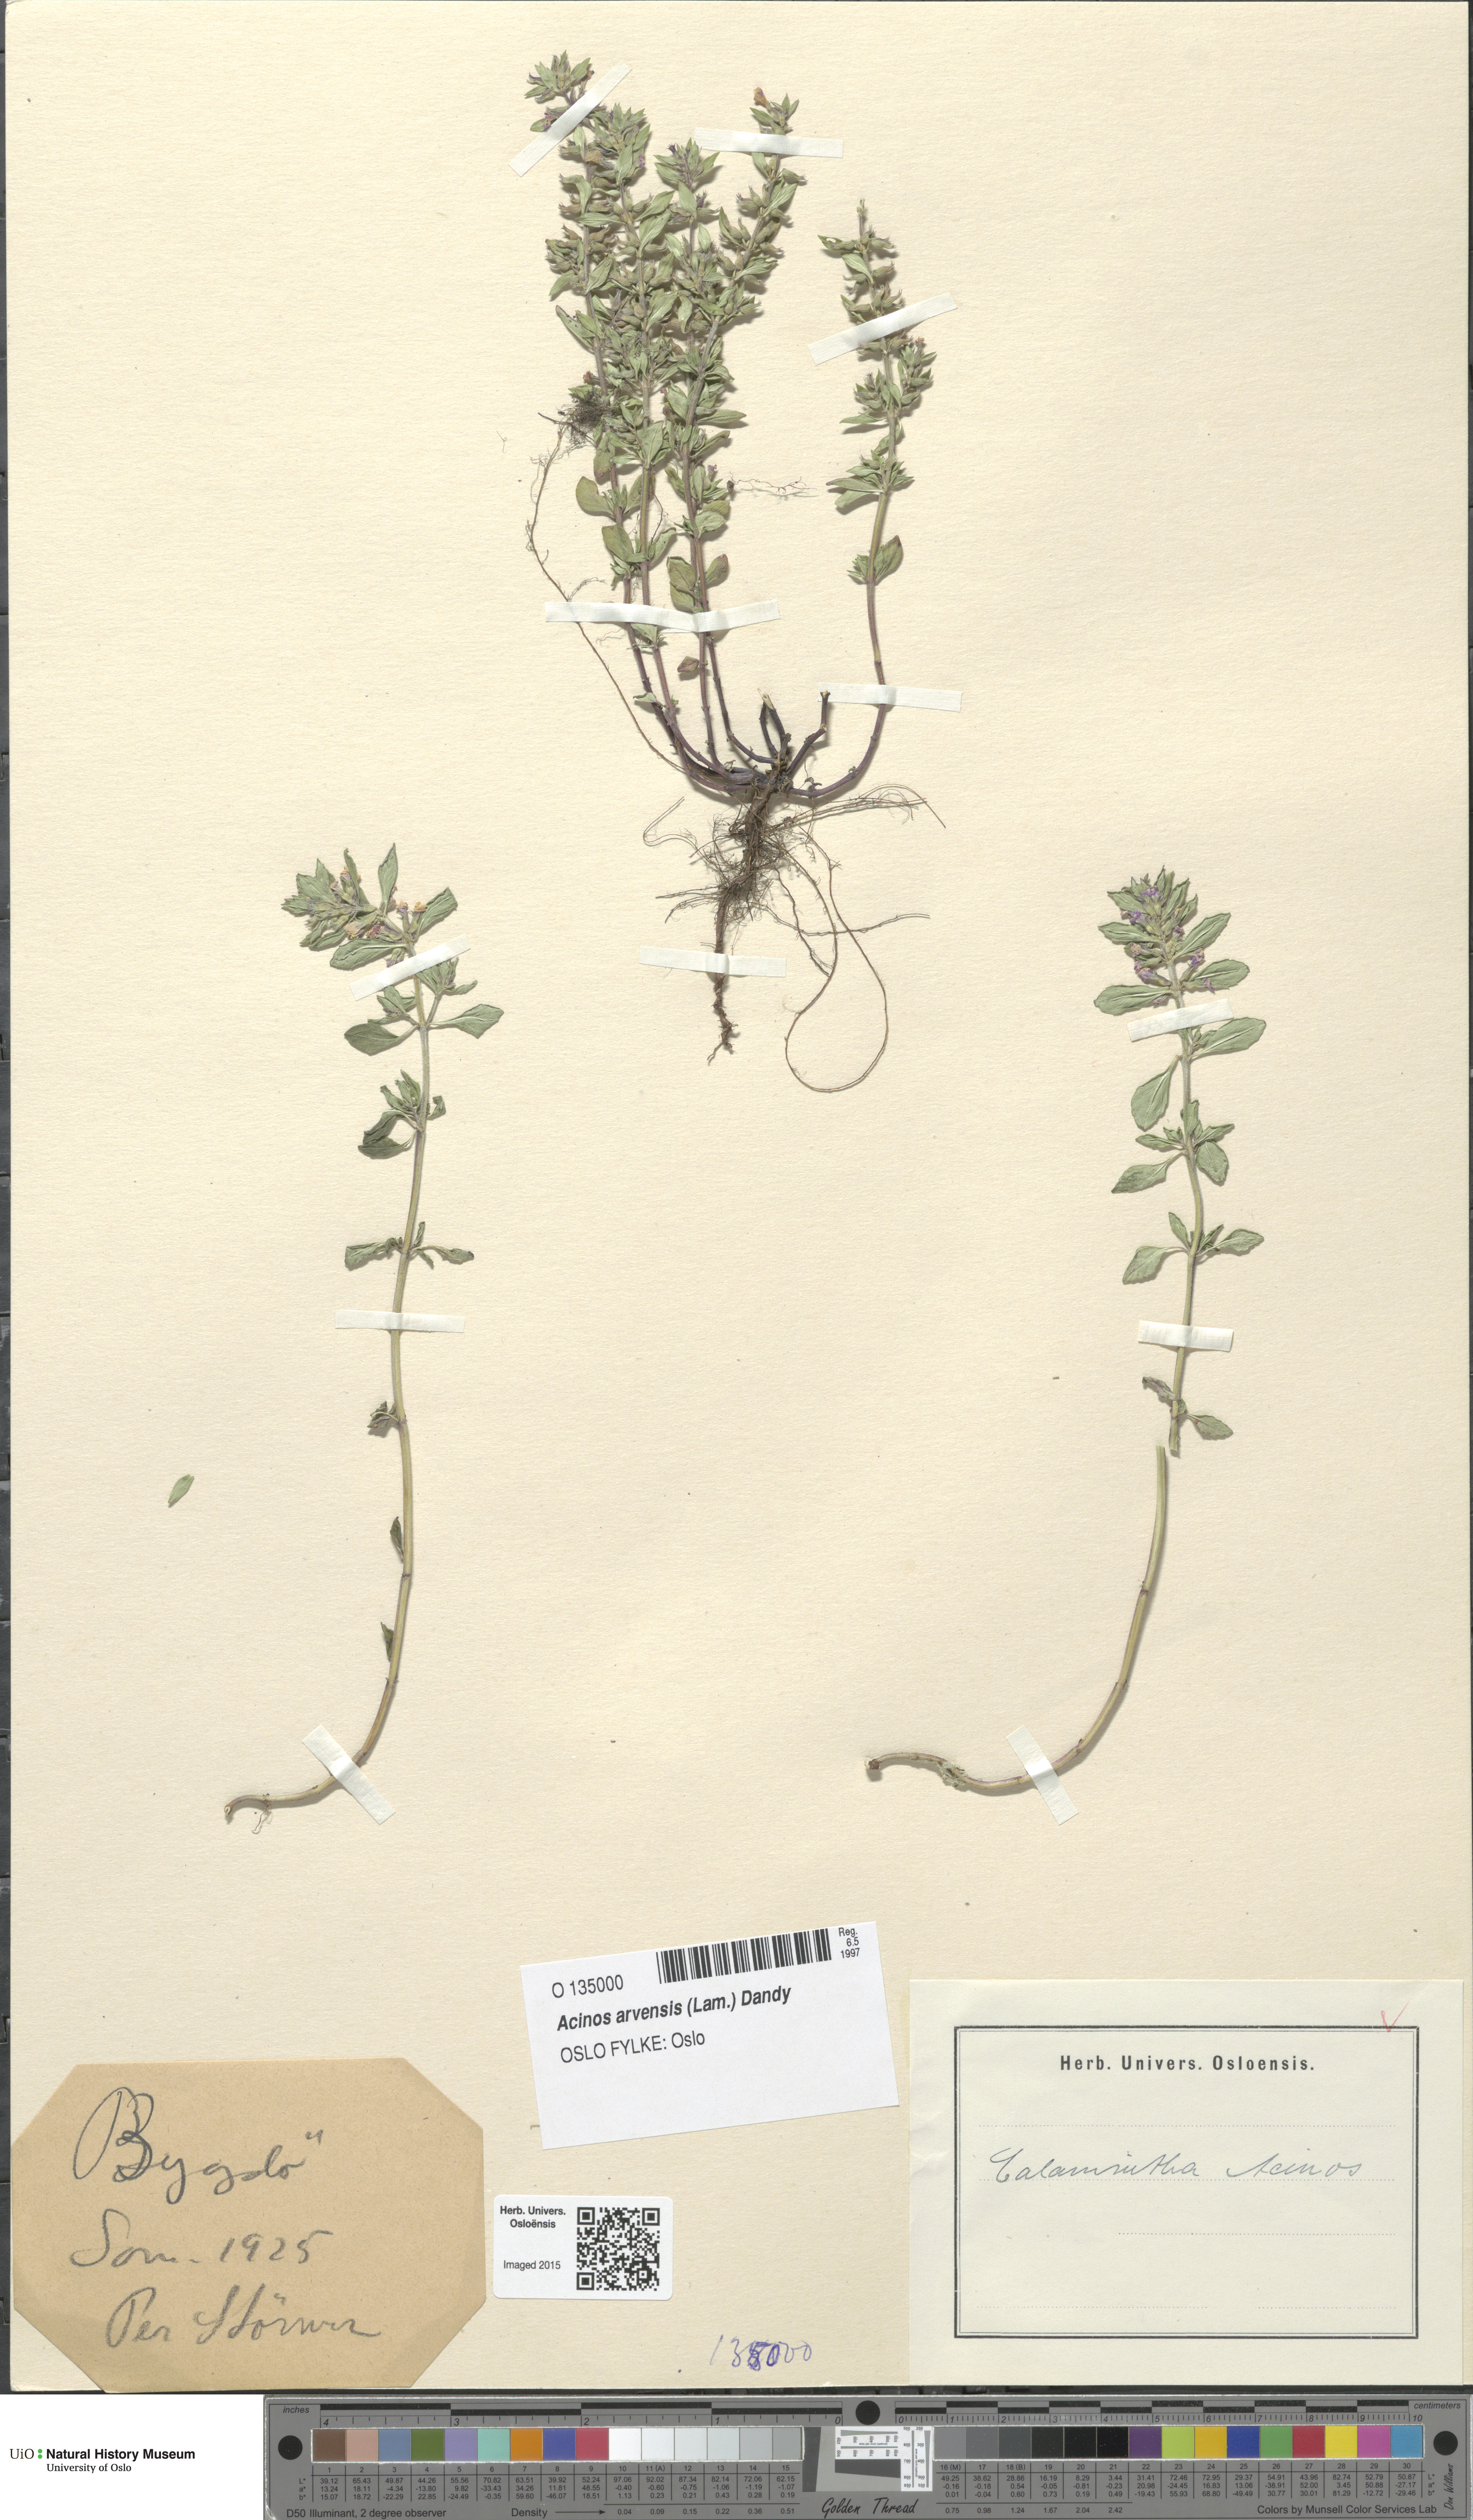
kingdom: Plantae
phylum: Tracheophyta
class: Magnoliopsida
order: Lamiales
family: Lamiaceae
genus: Clinopodium
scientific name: Clinopodium acinos
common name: Basil thyme
